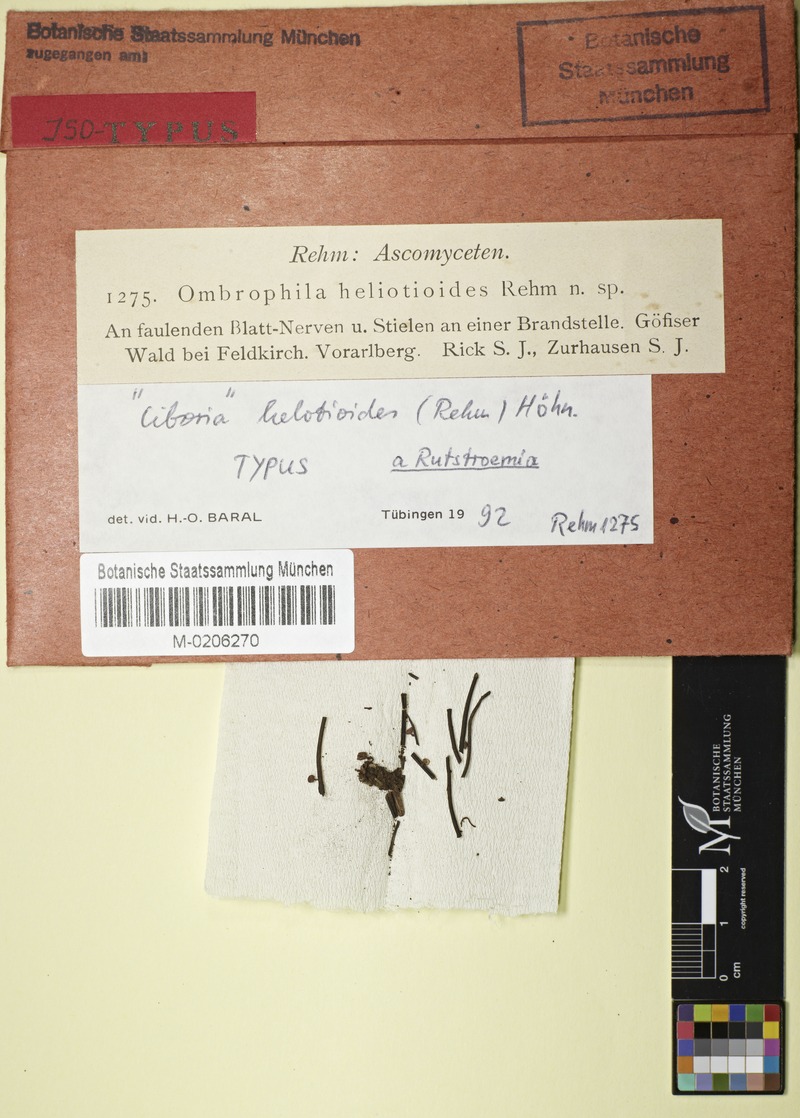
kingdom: Fungi
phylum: Ascomycota
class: Leotiomycetes
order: Helotiales
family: Sclerotiniaceae
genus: Ciboria
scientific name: Ciboria helotioides
